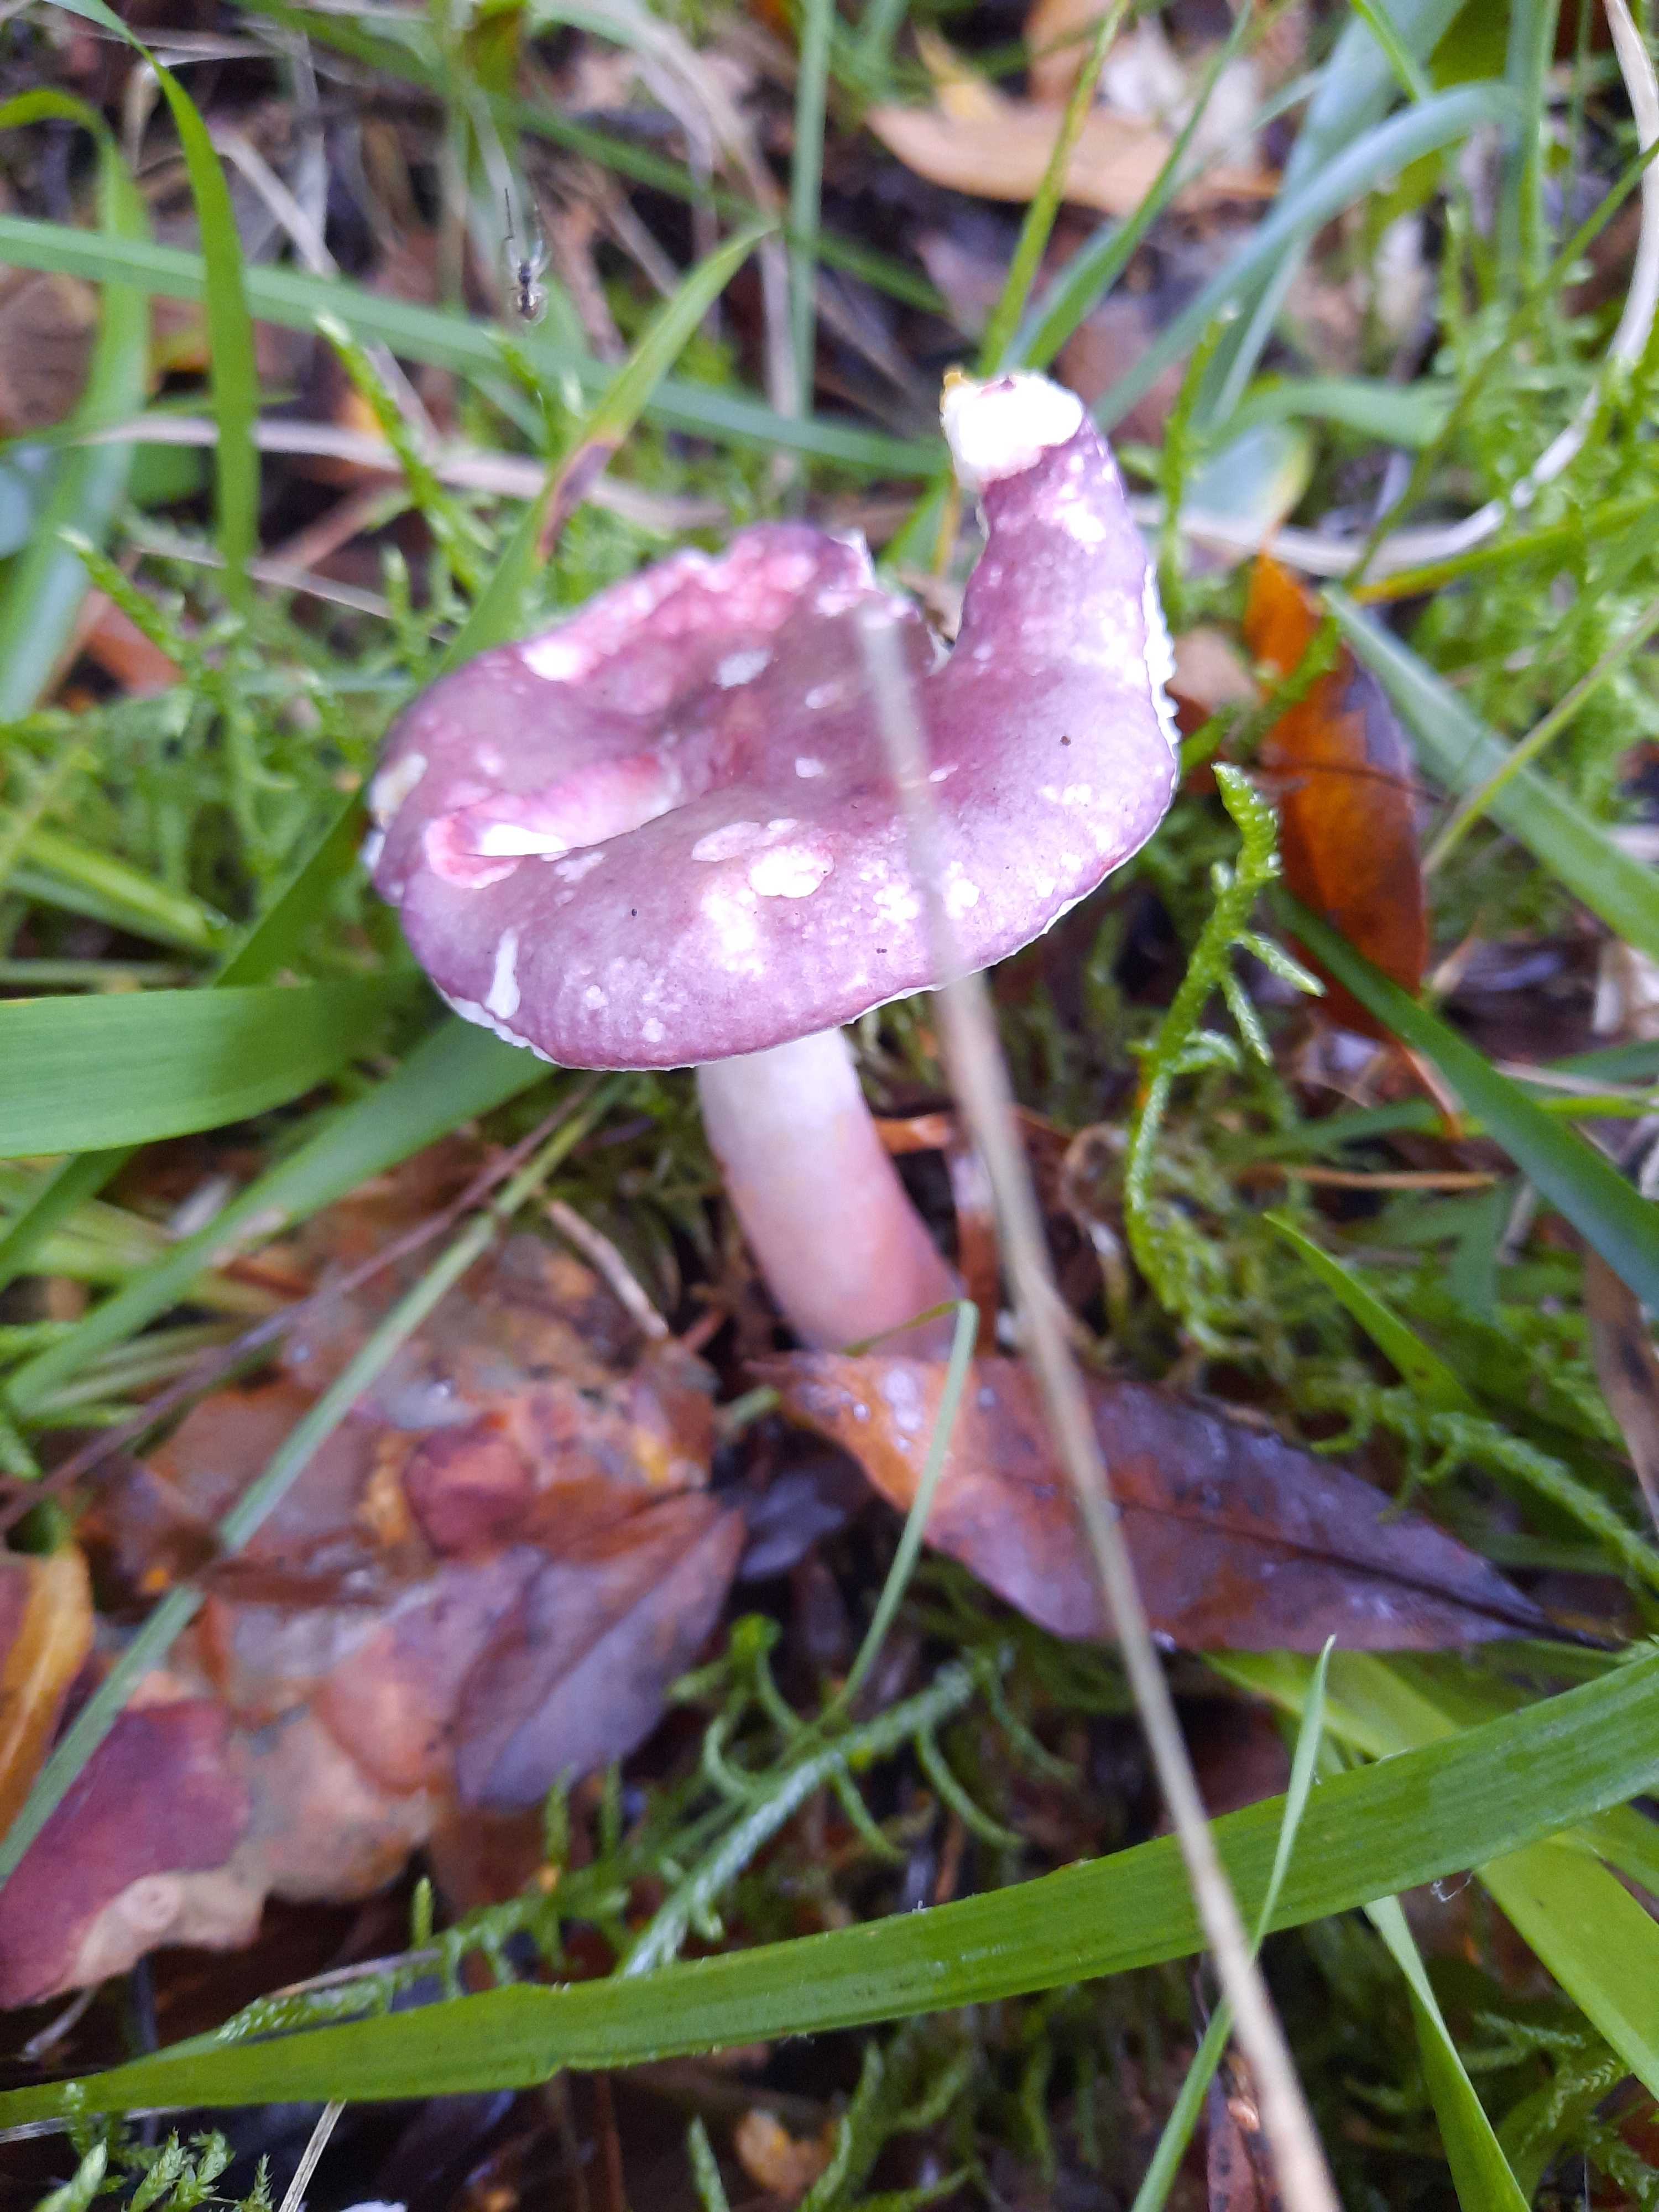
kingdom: Fungi
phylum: Basidiomycota
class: Agaricomycetes
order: Russulales
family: Russulaceae
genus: Russula
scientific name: Russula queletii
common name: Quélets skørhat
